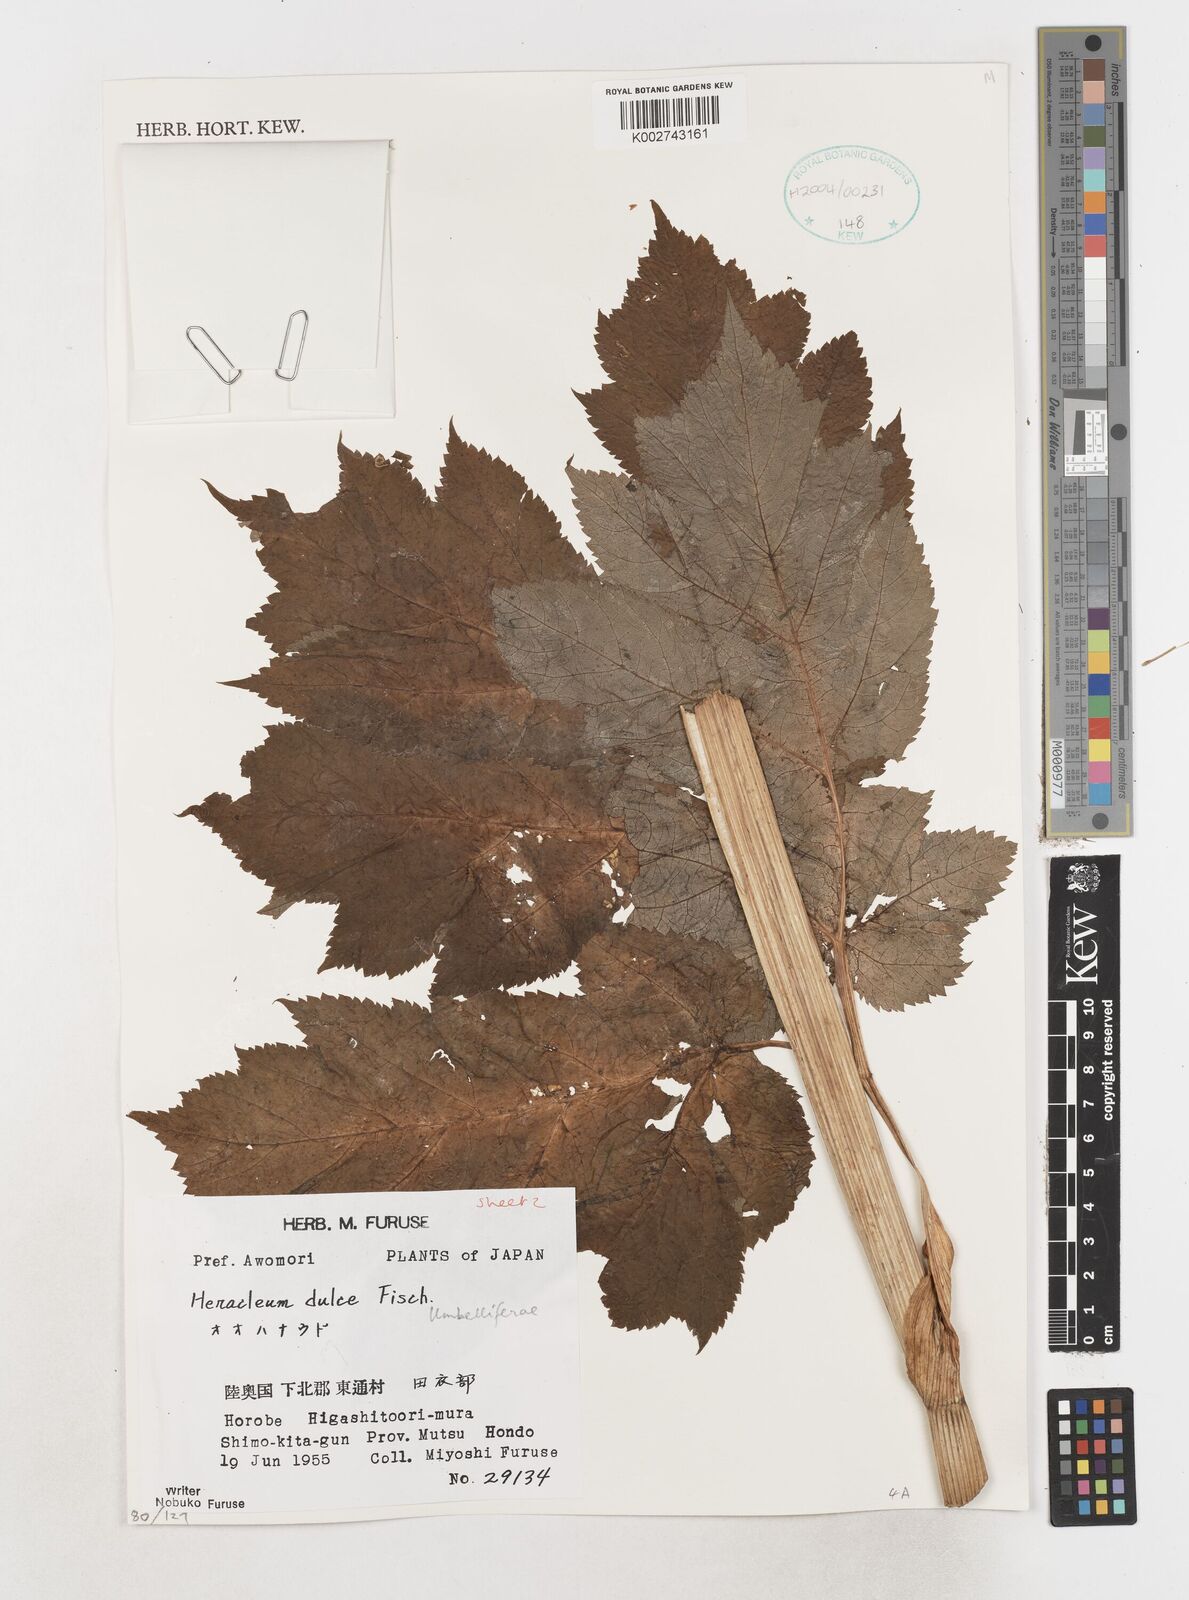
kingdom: Plantae
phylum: Tracheophyta
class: Magnoliopsida
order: Apiales
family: Apiaceae
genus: Heracleum
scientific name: Heracleum
